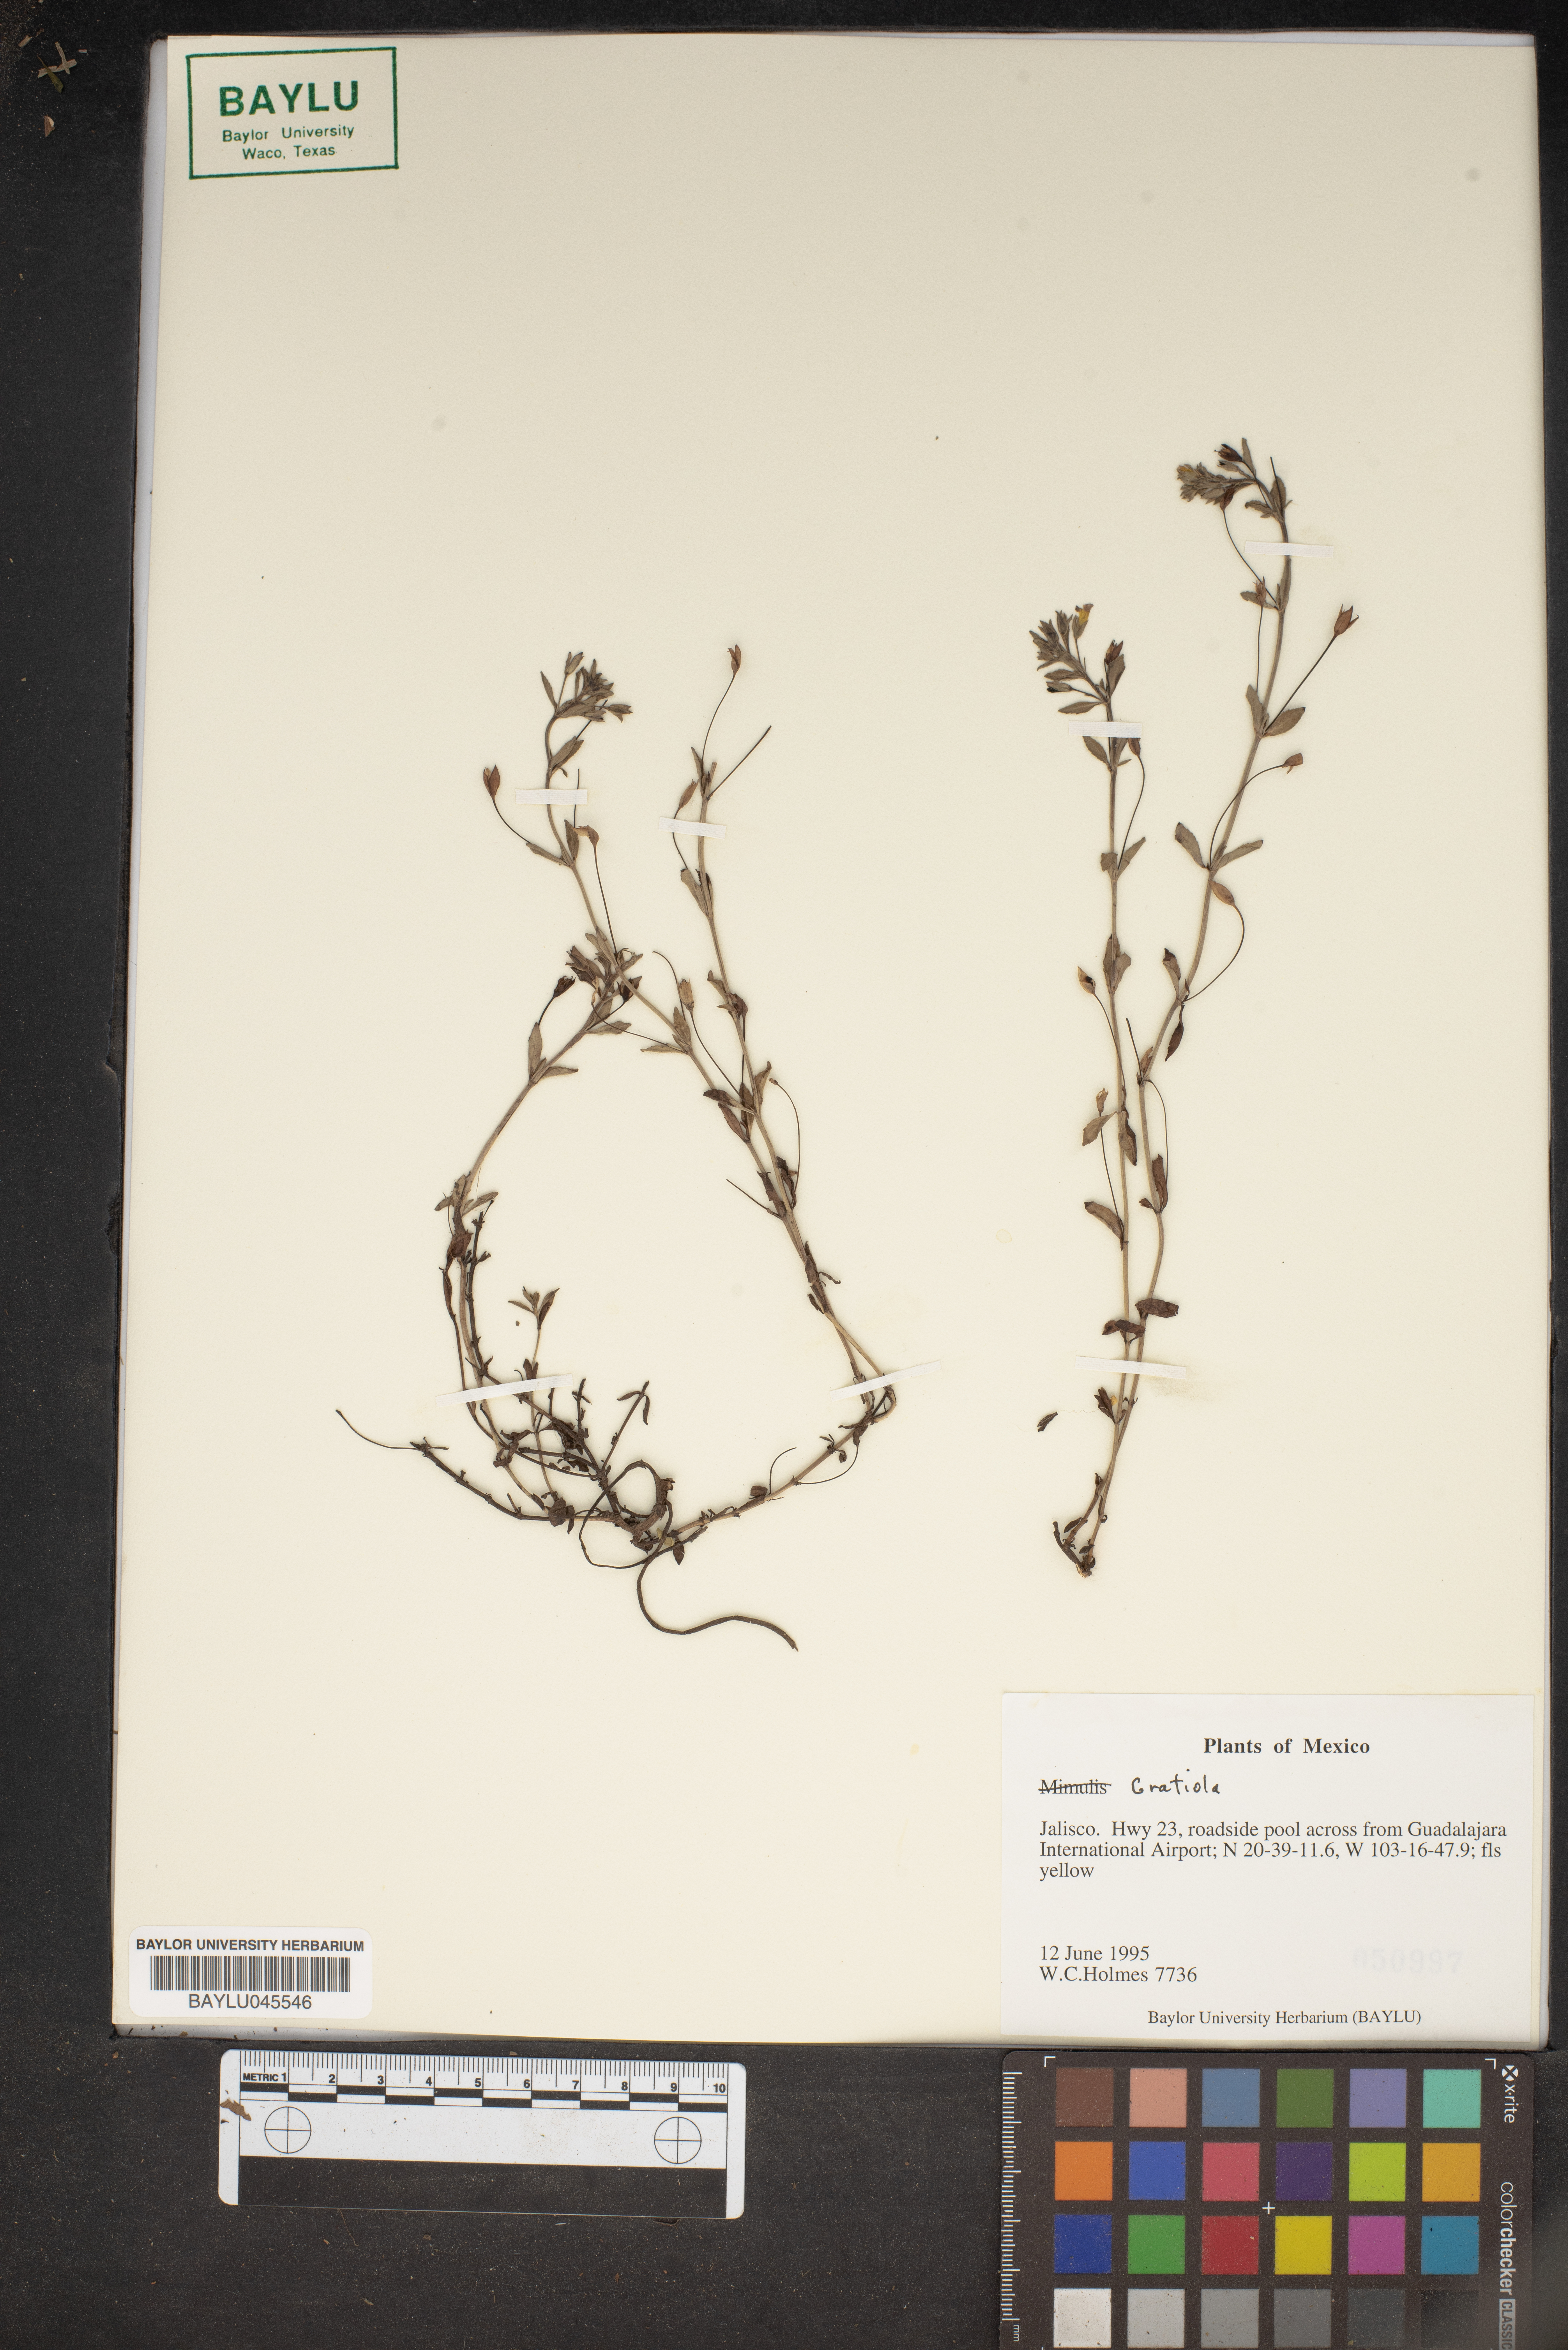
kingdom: Plantae
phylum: Tracheophyta
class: Magnoliopsida
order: Lamiales
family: Plantaginaceae
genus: Gratiola
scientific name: Gratiola
